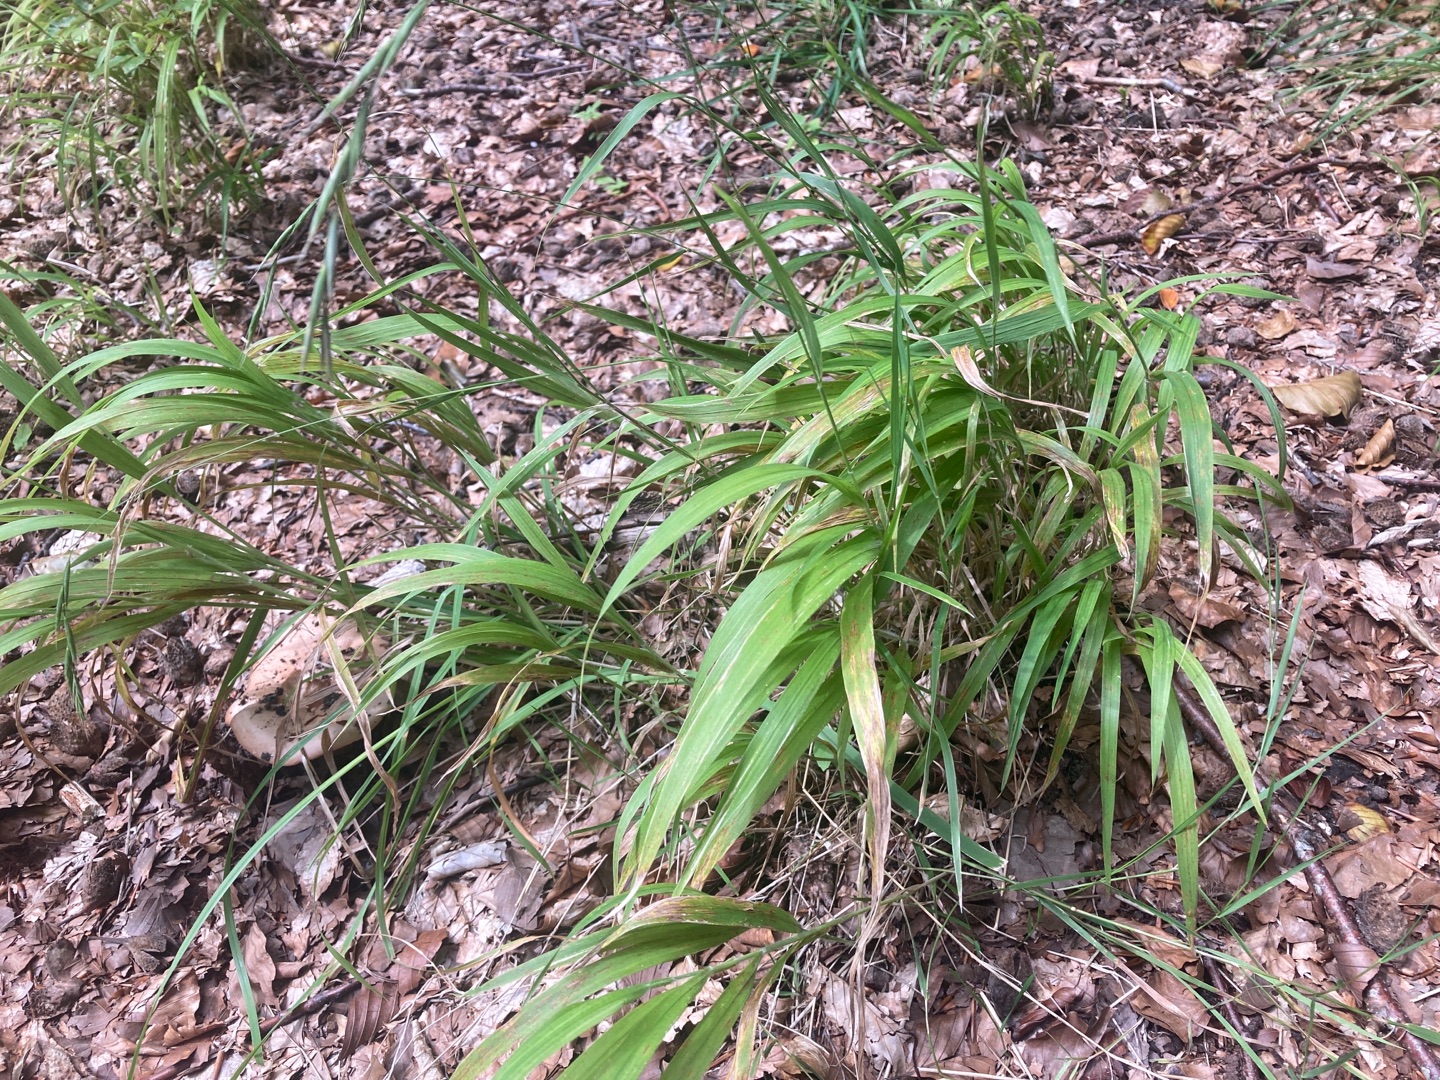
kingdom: Plantae
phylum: Tracheophyta
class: Liliopsida
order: Poales
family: Poaceae
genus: Brachypodium
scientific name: Brachypodium sylvaticum
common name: Skov-stilkaks
